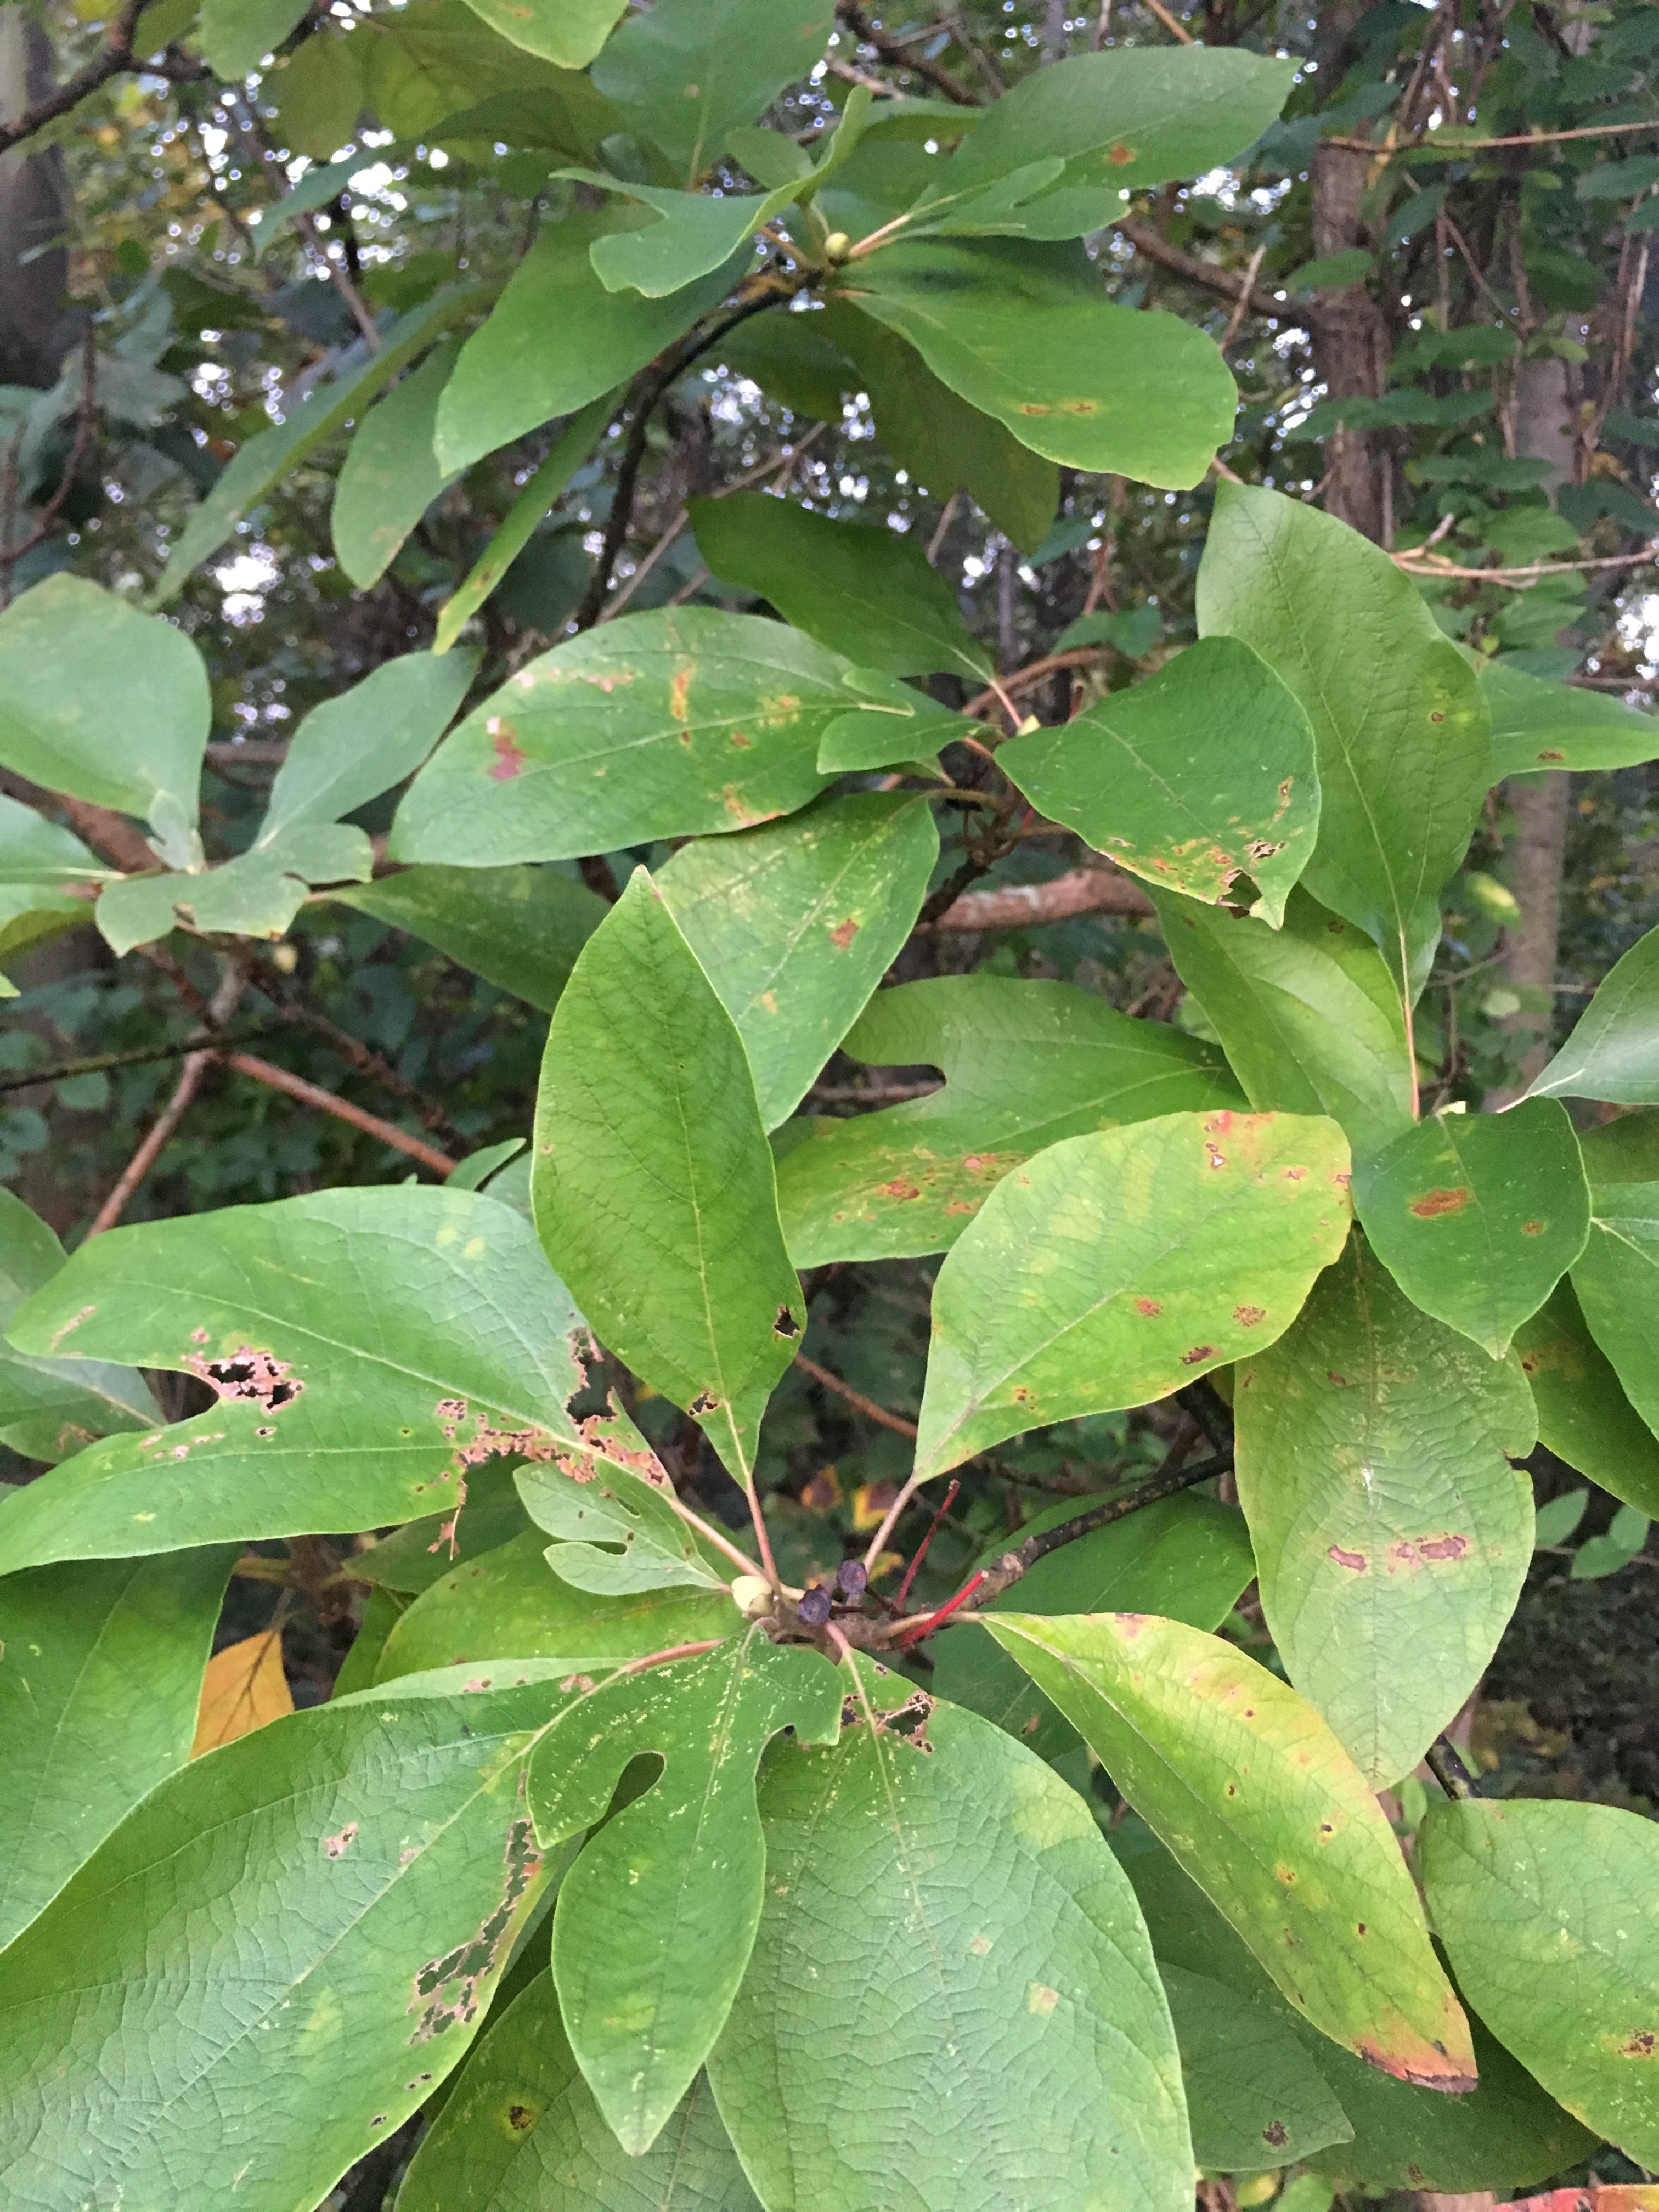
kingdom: Plantae
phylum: Tracheophyta
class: Magnoliopsida
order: Laurales
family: Lauraceae
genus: Sassafras
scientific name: Sassafras albidum
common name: Sassafras
